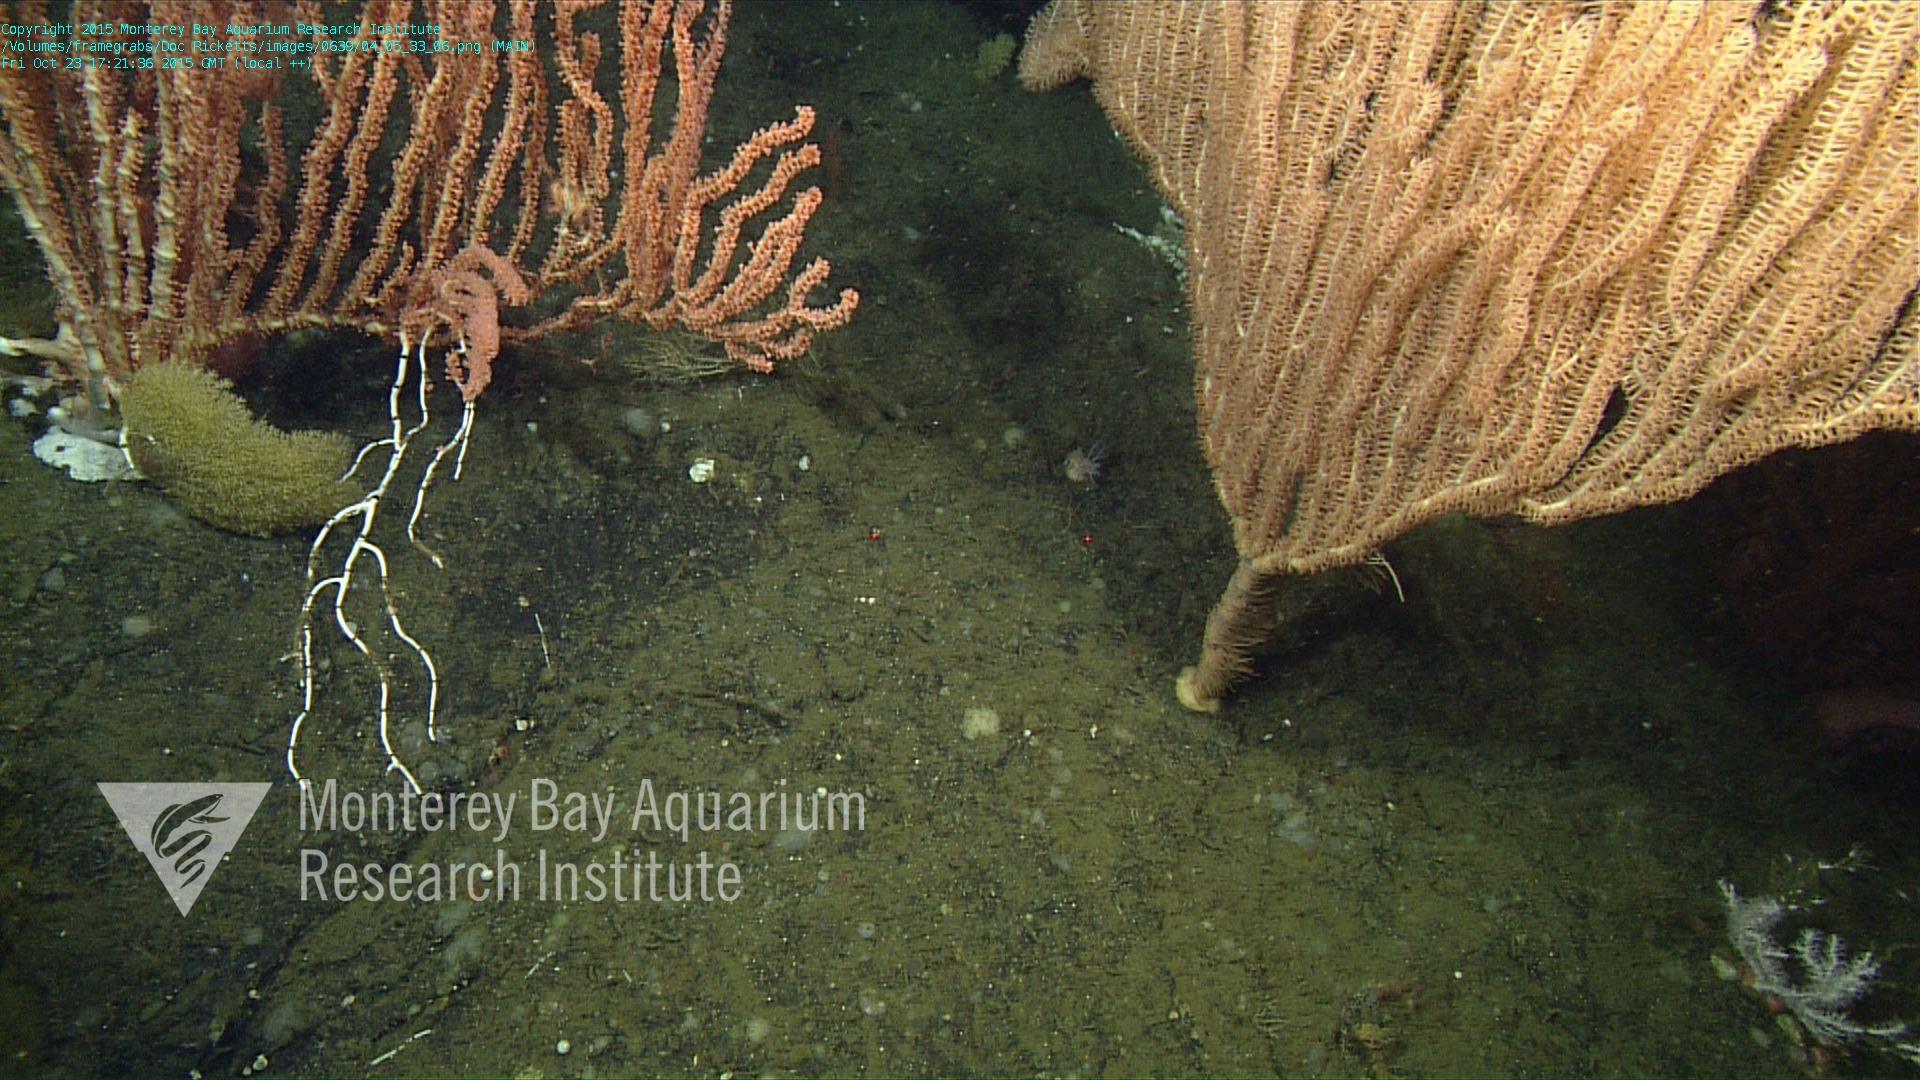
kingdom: Animalia
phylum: Cnidaria
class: Anthozoa
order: Malacalcyonacea
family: Paramuriceidae
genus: Acanthogorgia
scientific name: Acanthogorgia
